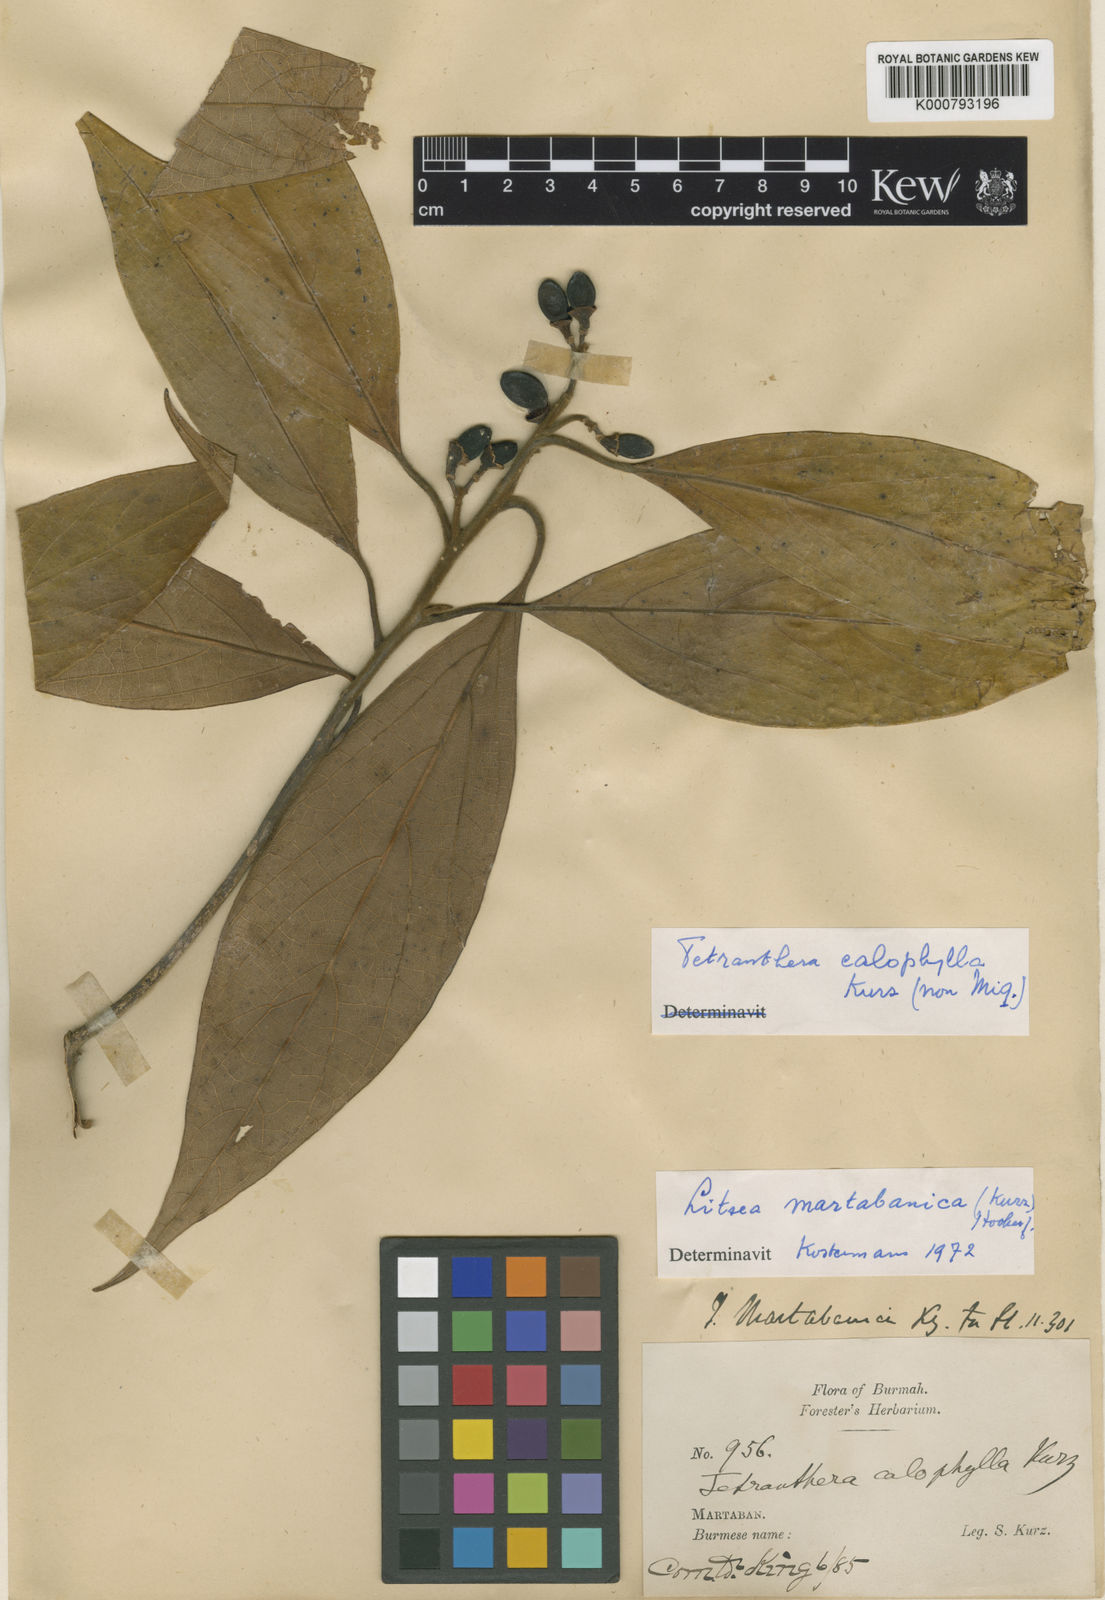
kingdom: Plantae
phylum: Tracheophyta
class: Magnoliopsida
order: Laurales
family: Lauraceae
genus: Litsea
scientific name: Litsea martabanica
